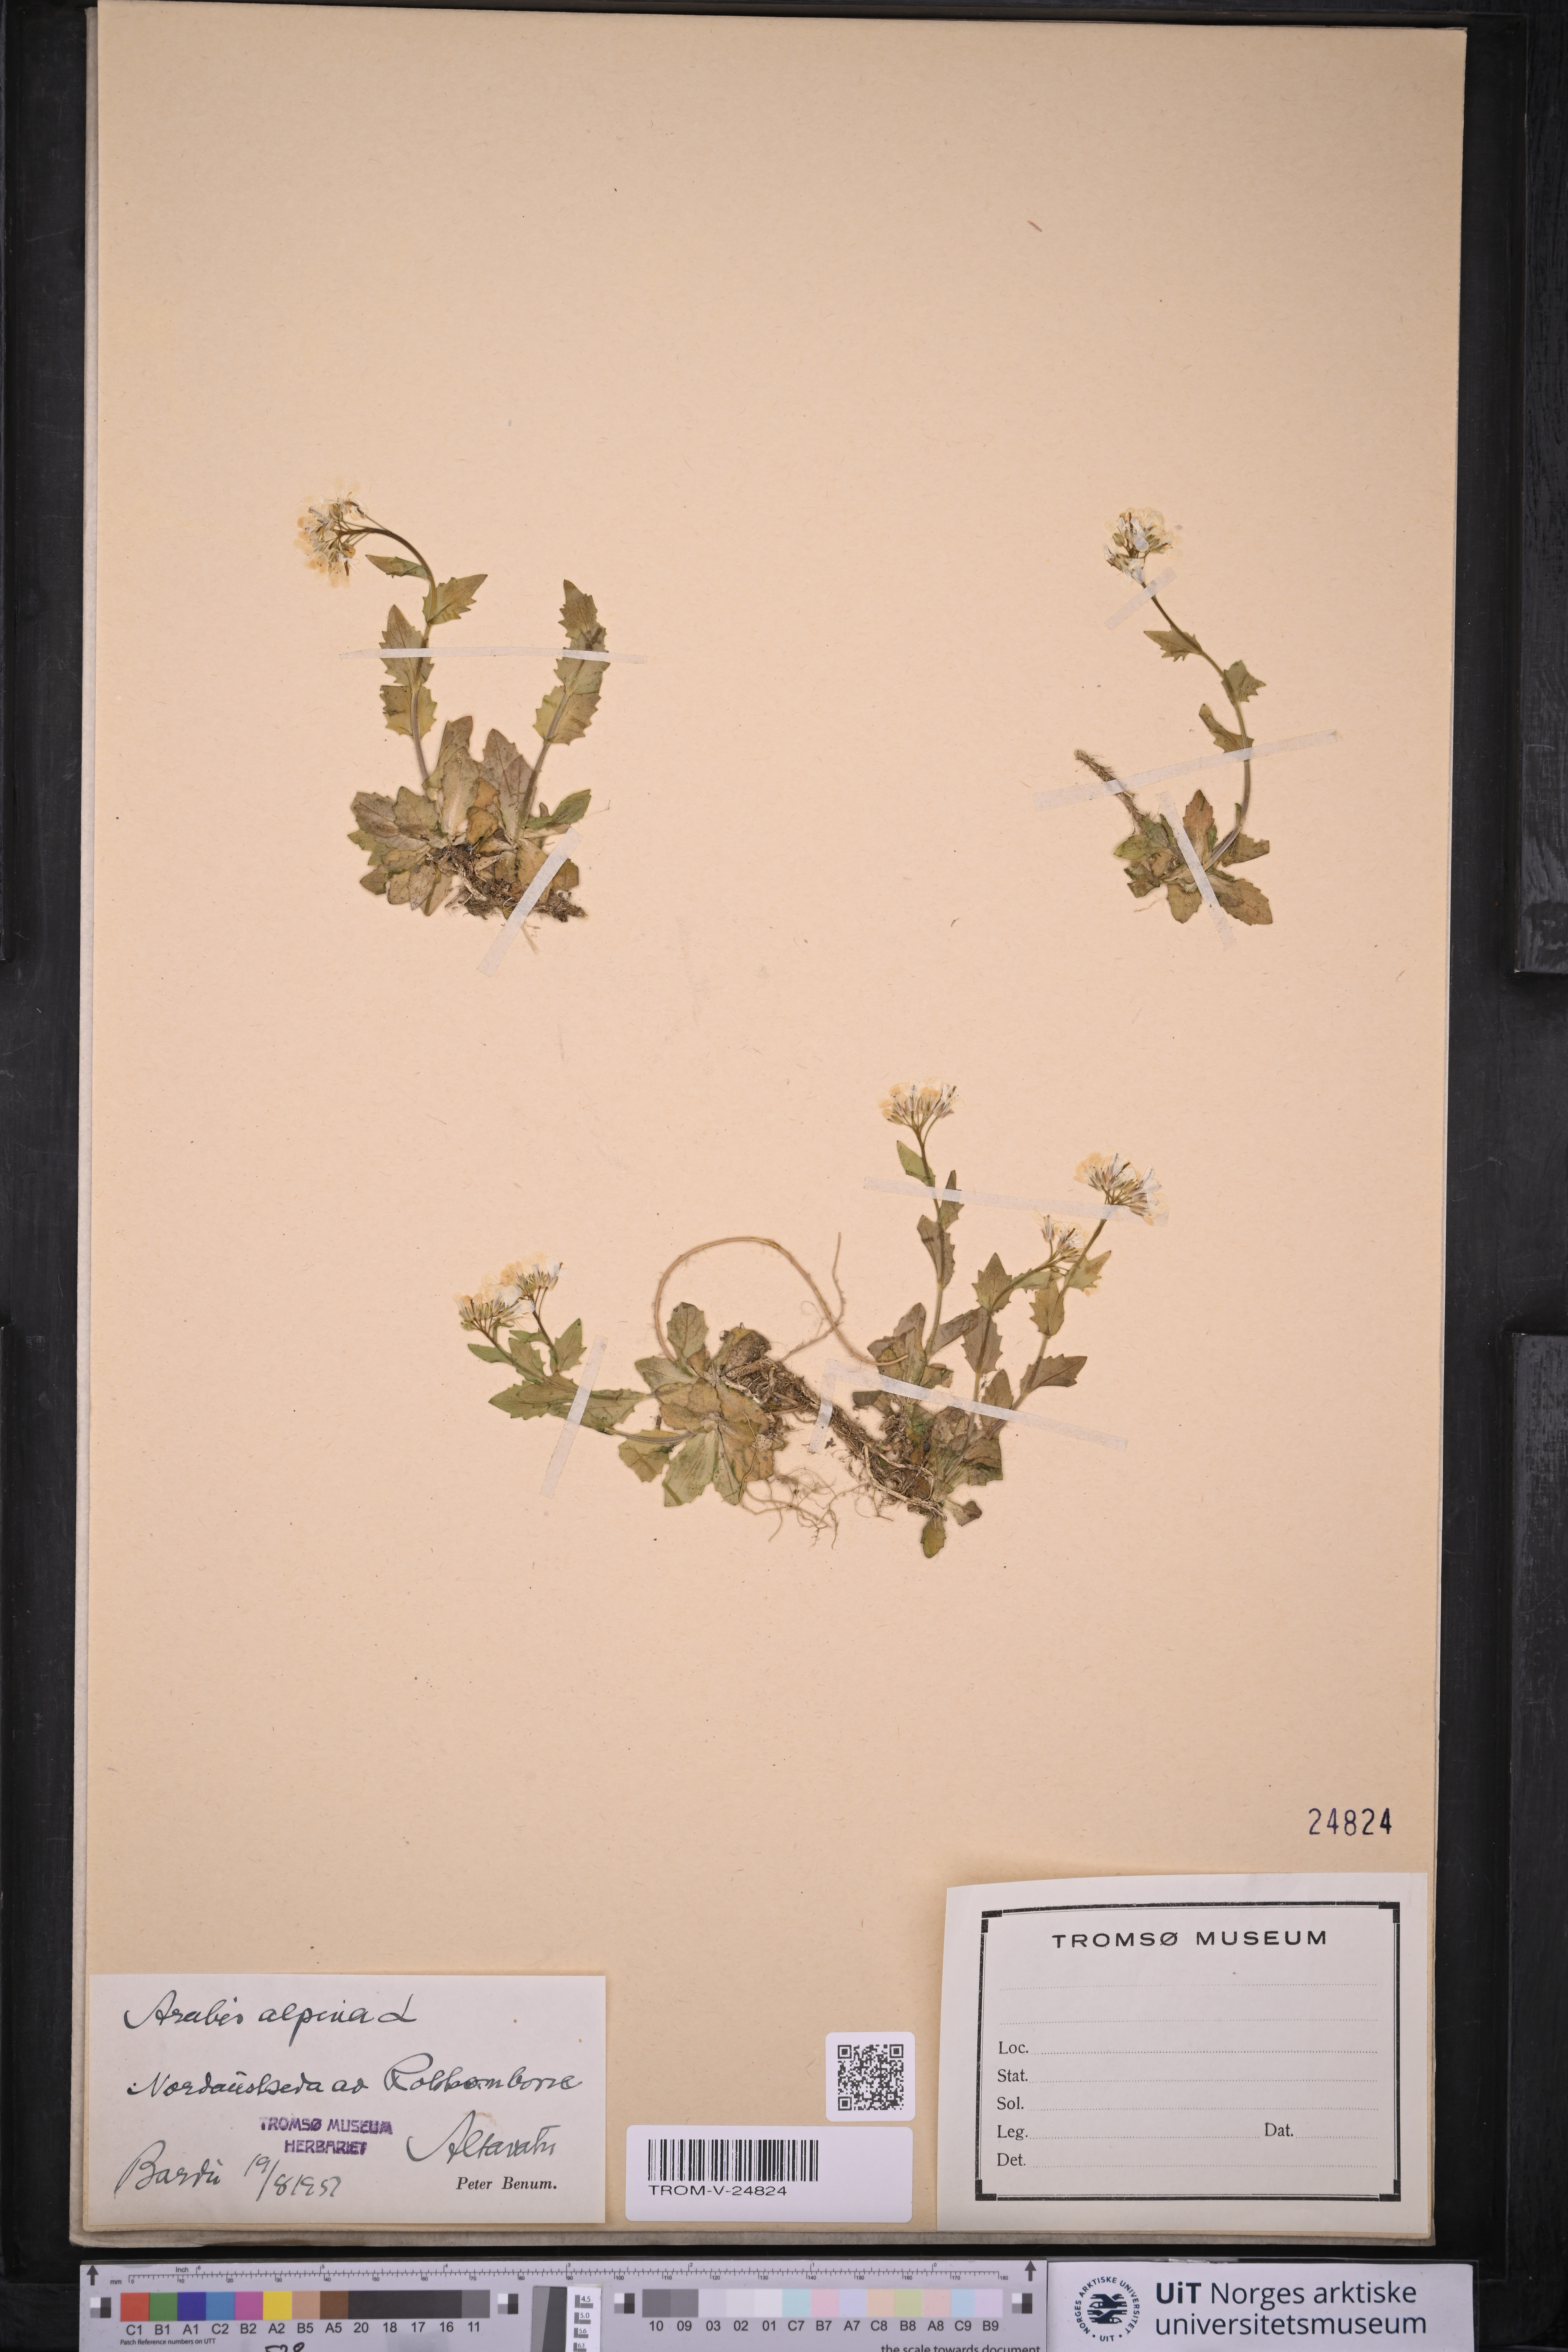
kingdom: Plantae
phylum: Tracheophyta
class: Magnoliopsida
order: Brassicales
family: Brassicaceae
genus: Arabis
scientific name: Arabis alpina
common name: Alpine rock-cress
